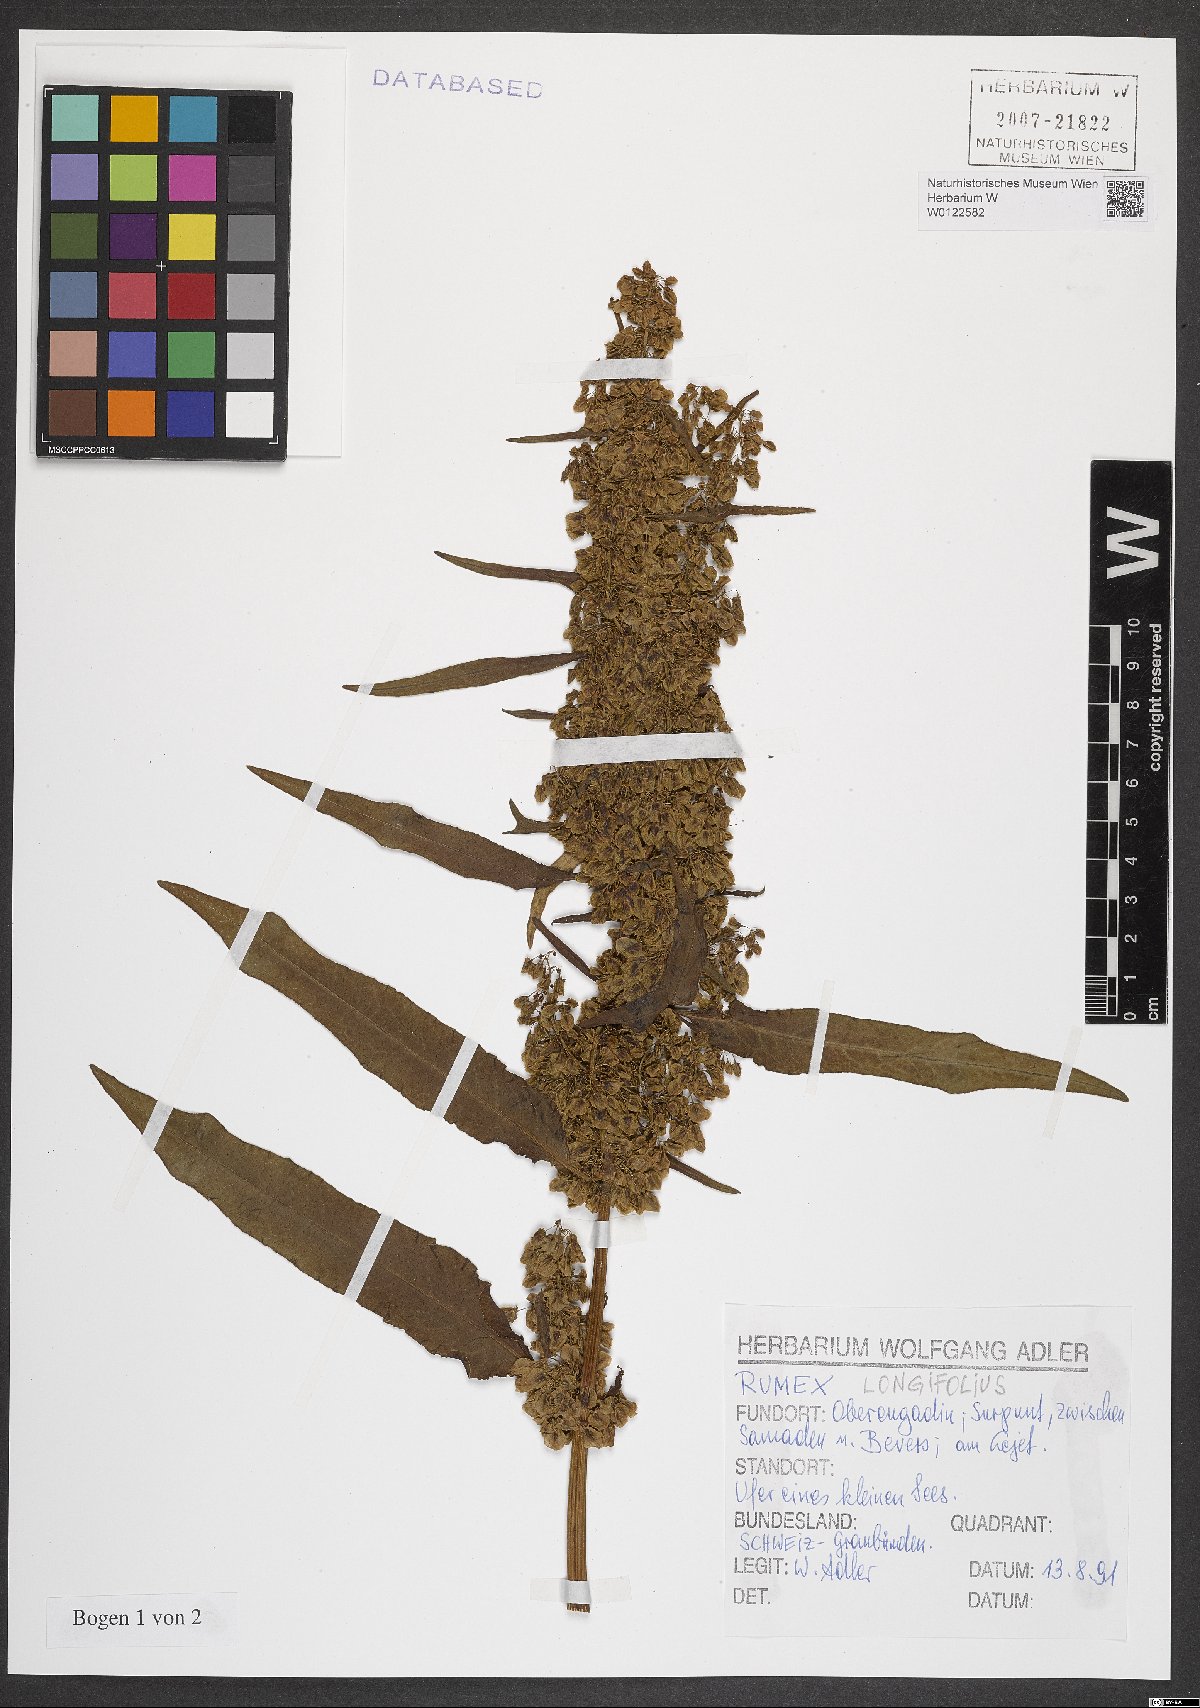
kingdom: Plantae
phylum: Tracheophyta
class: Magnoliopsida
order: Caryophyllales
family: Polygonaceae
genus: Rumex
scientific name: Rumex longifolius
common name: Dooryard dock
